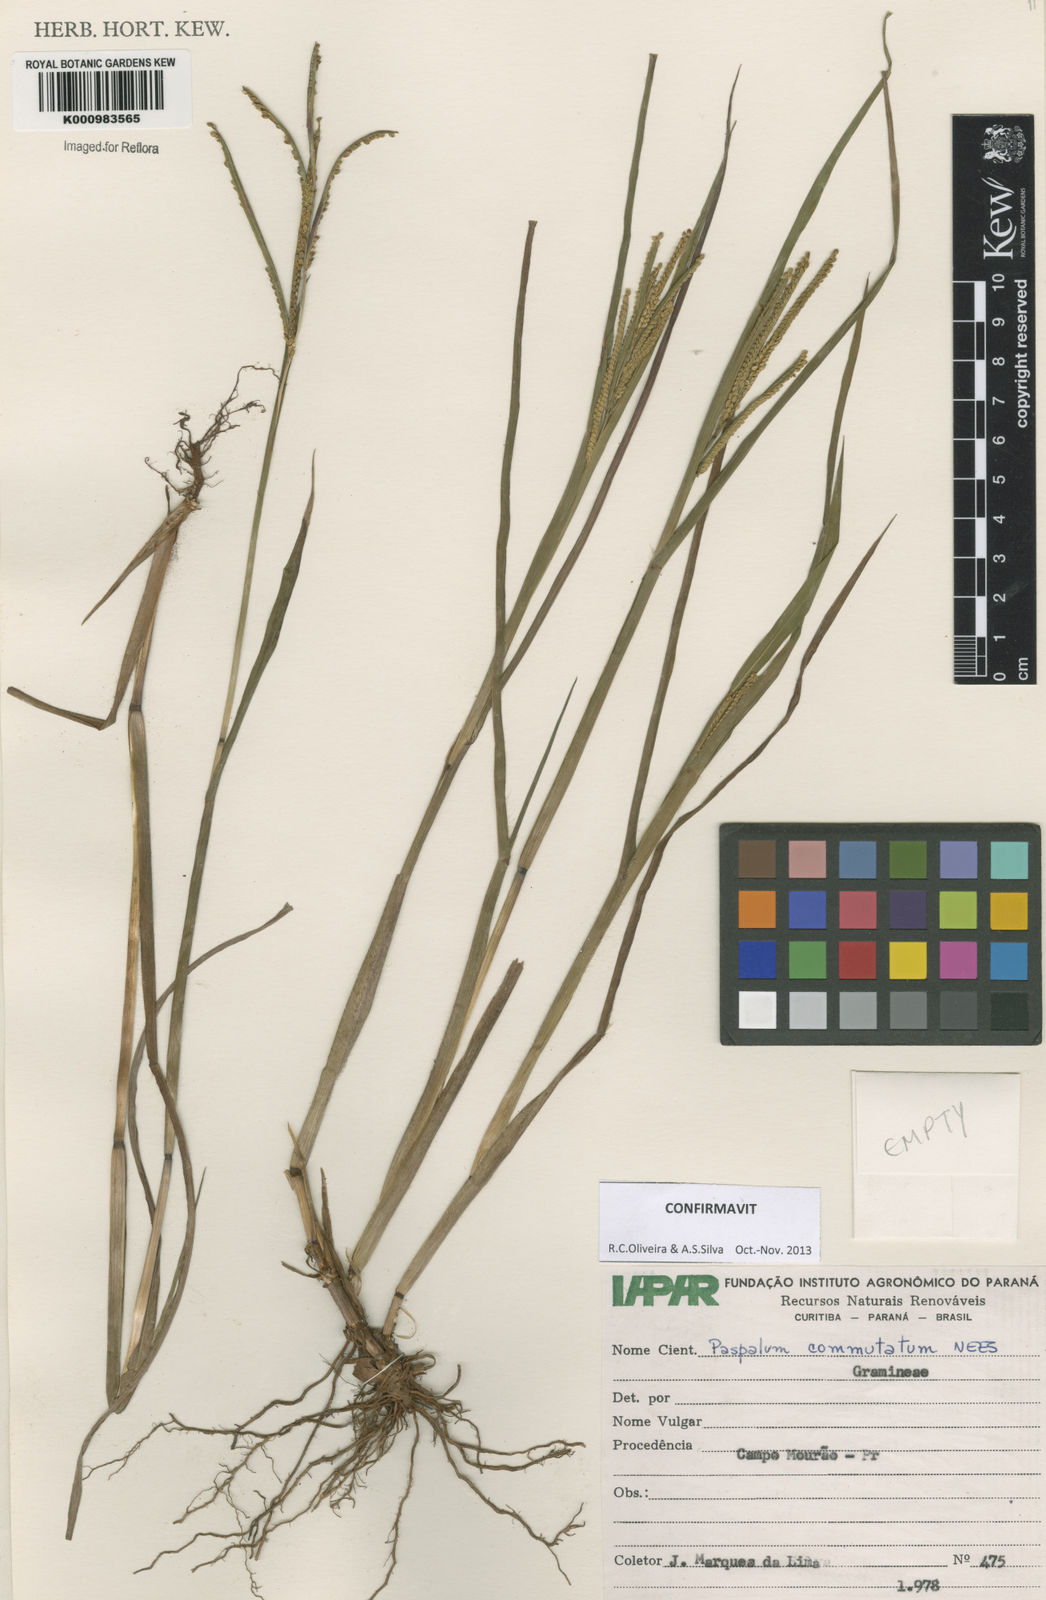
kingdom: Plantae
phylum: Tracheophyta
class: Liliopsida
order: Poales
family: Poaceae
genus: Paspalum
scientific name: Paspalum scrobiculatum
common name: Kodo millet
